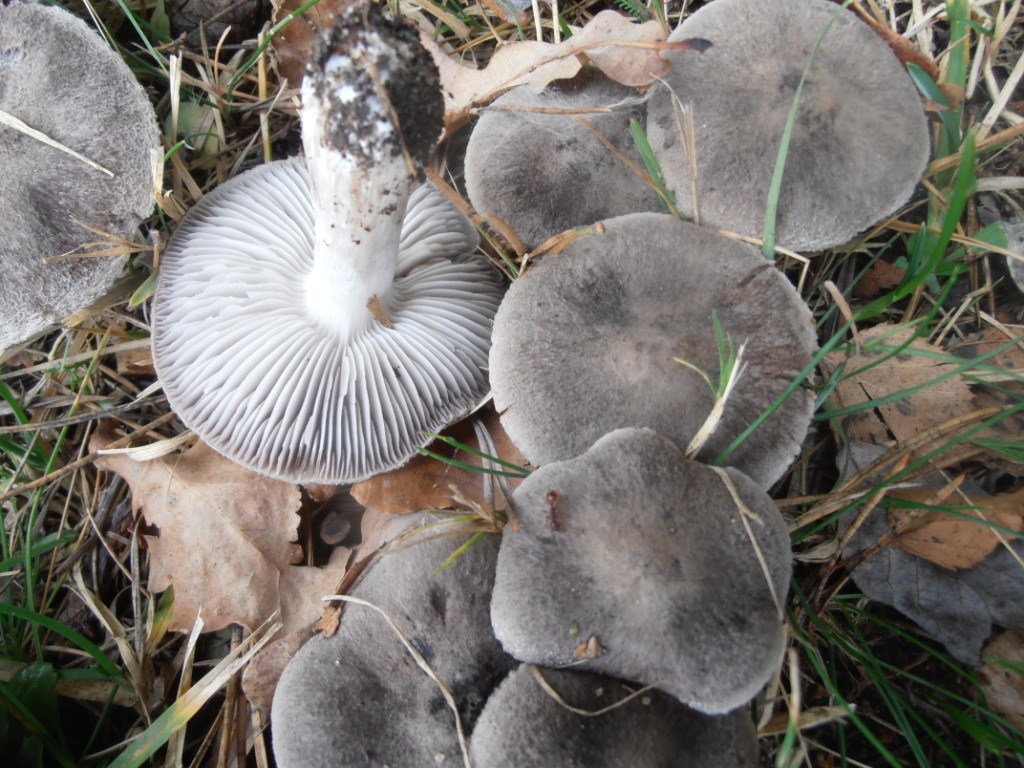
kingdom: Fungi
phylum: Basidiomycota
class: Agaricomycetes
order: Agaricales
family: Tricholomataceae
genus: Tricholoma
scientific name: Tricholoma terreum
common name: jordfarvet ridderhat
